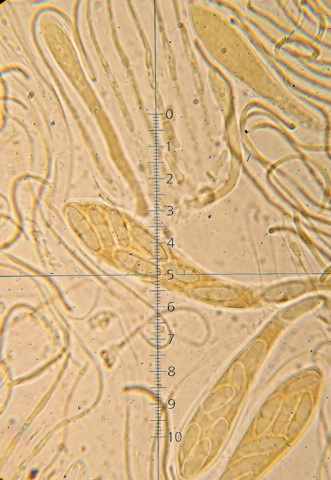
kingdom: Fungi
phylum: Ascomycota
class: Leotiomycetes
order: Rhytismatales
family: Rhytismataceae
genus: Hypoderma
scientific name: Hypoderma hederae
